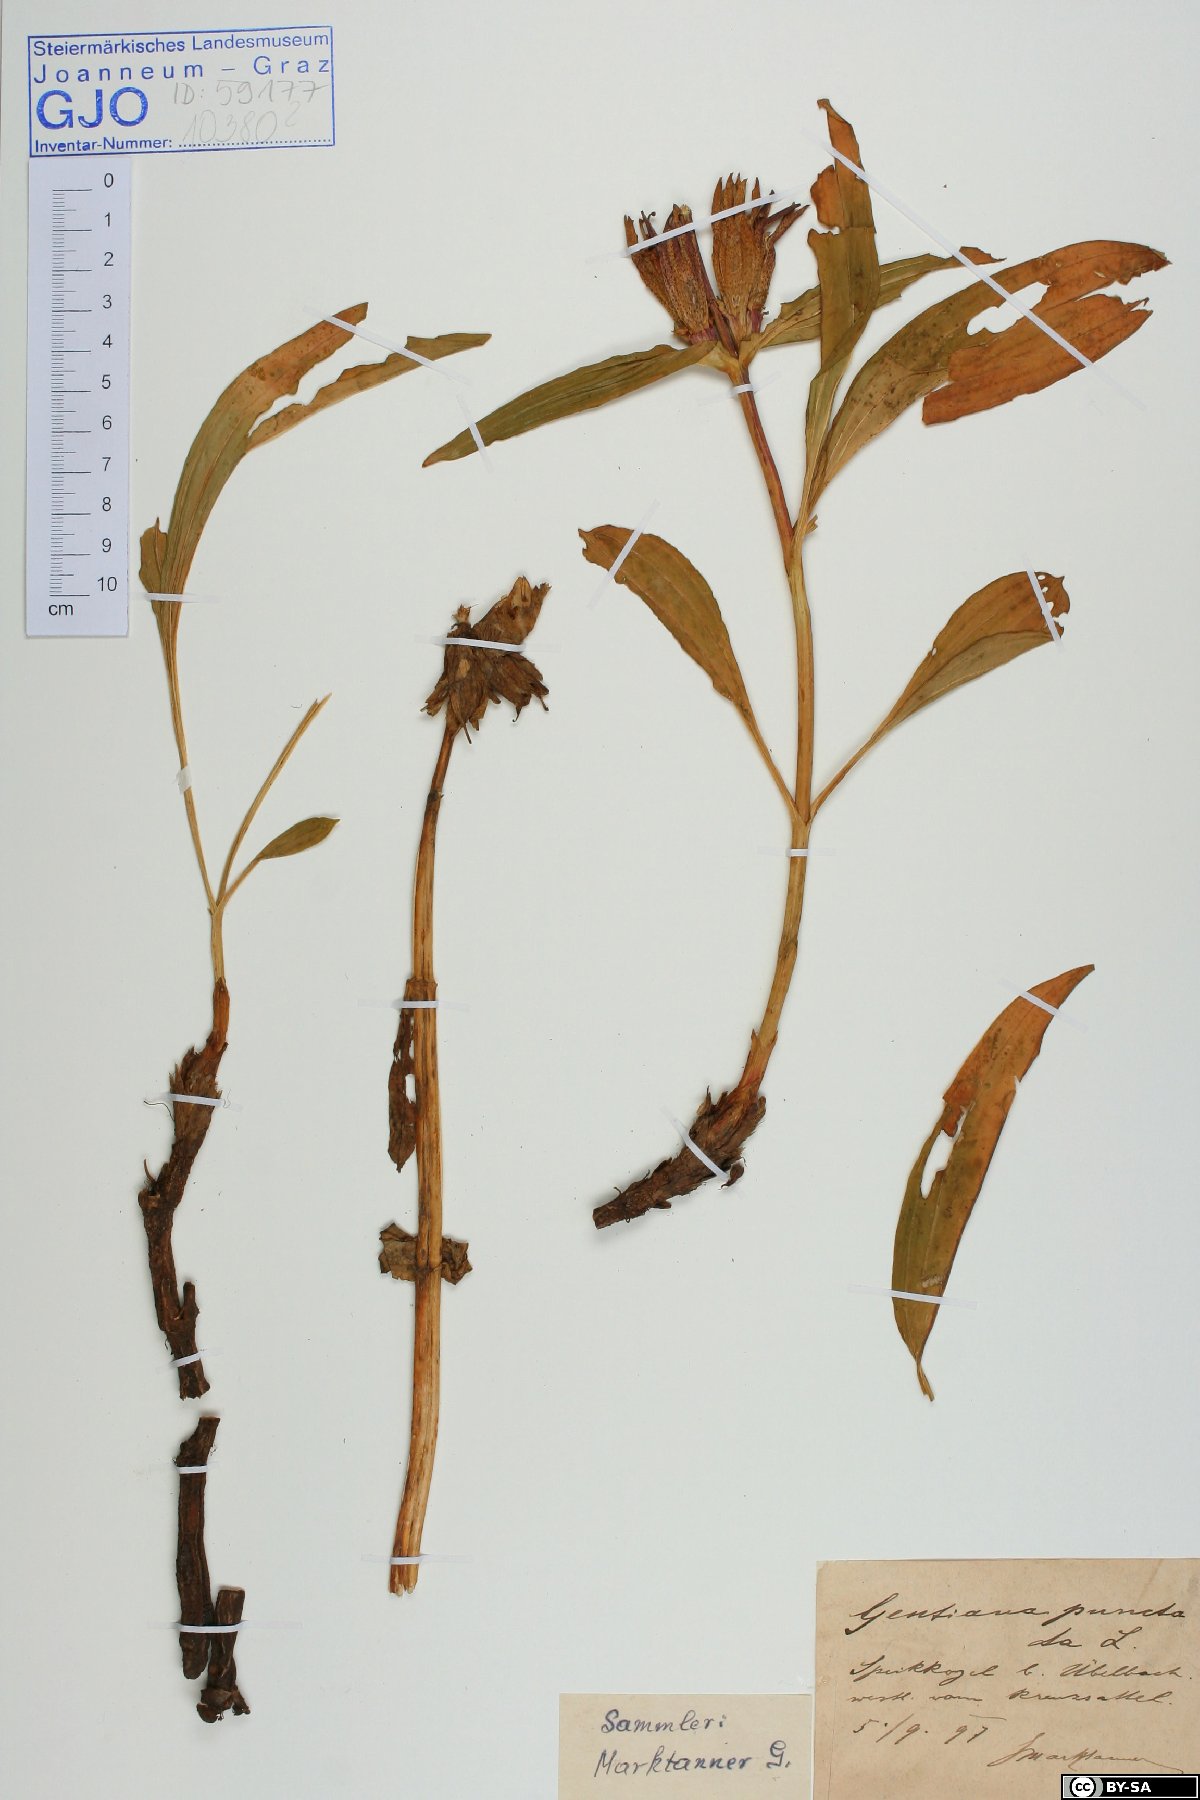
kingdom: Plantae
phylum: Tracheophyta
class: Magnoliopsida
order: Gentianales
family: Gentianaceae
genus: Gentiana
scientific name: Gentiana punctata
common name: Spotted gentian
